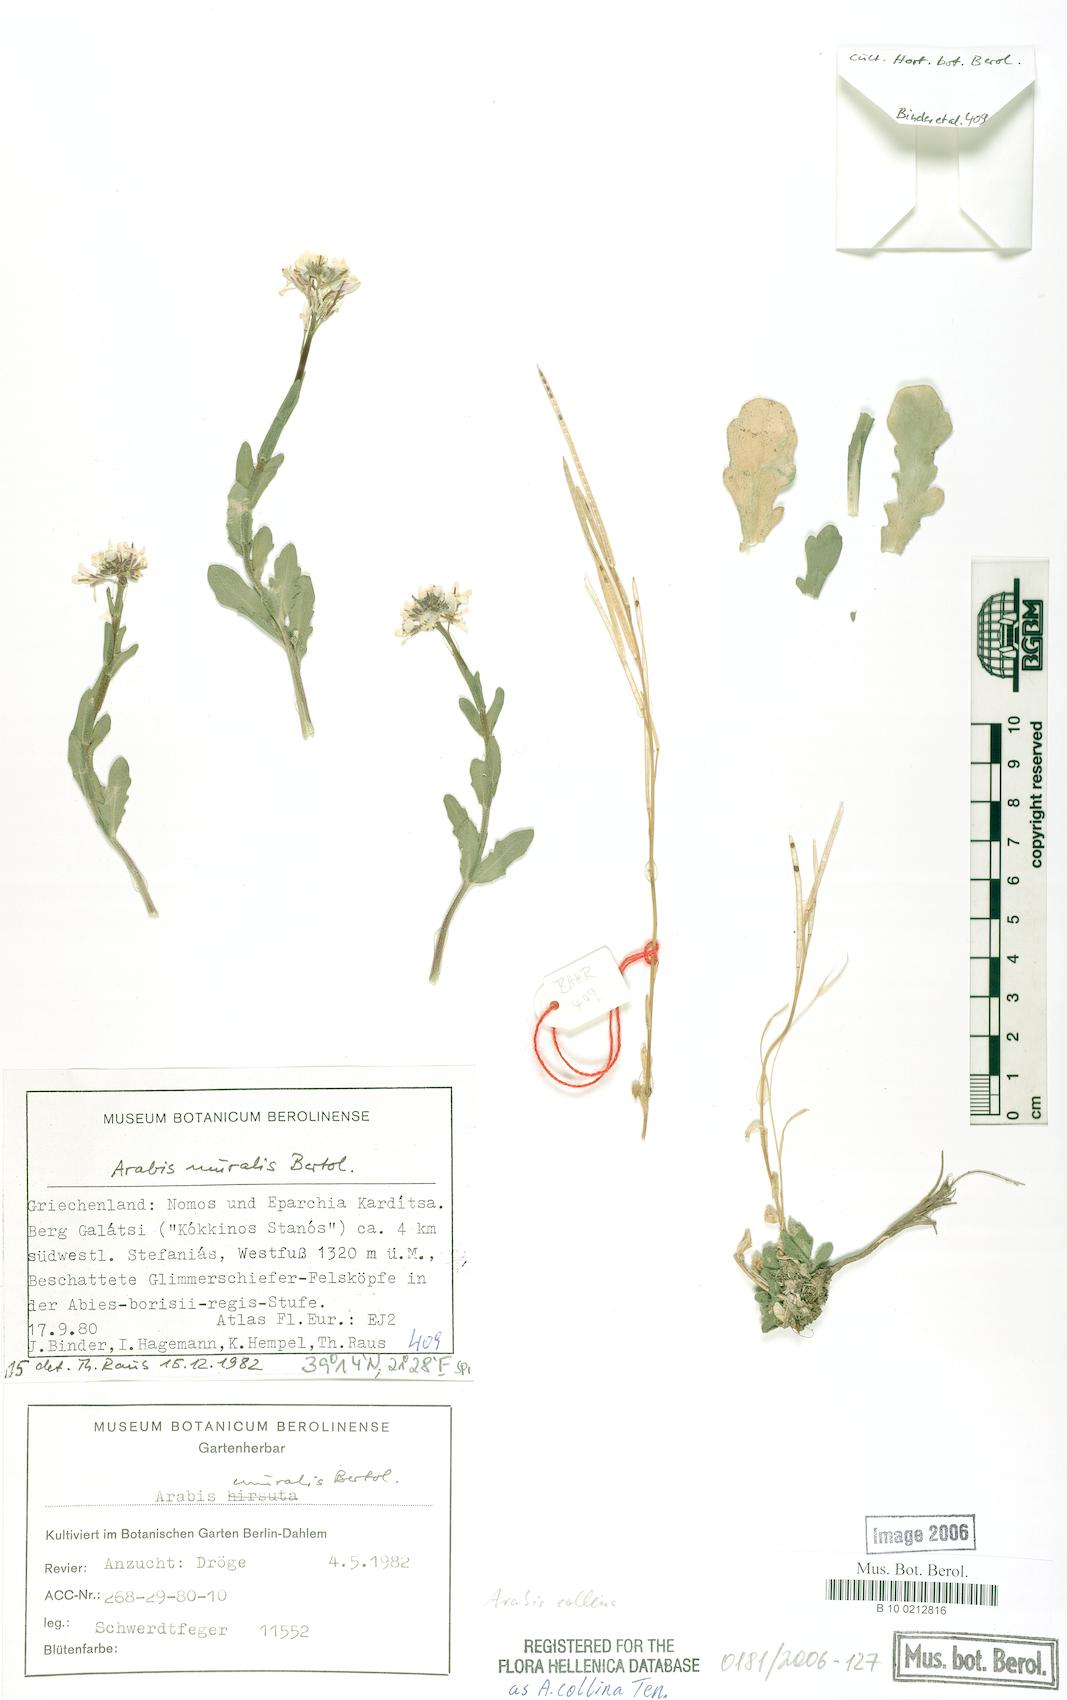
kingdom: Plantae
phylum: Tracheophyta
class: Magnoliopsida
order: Brassicales
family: Brassicaceae
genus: Arabis
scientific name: Arabis collina
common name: Rosy cress
